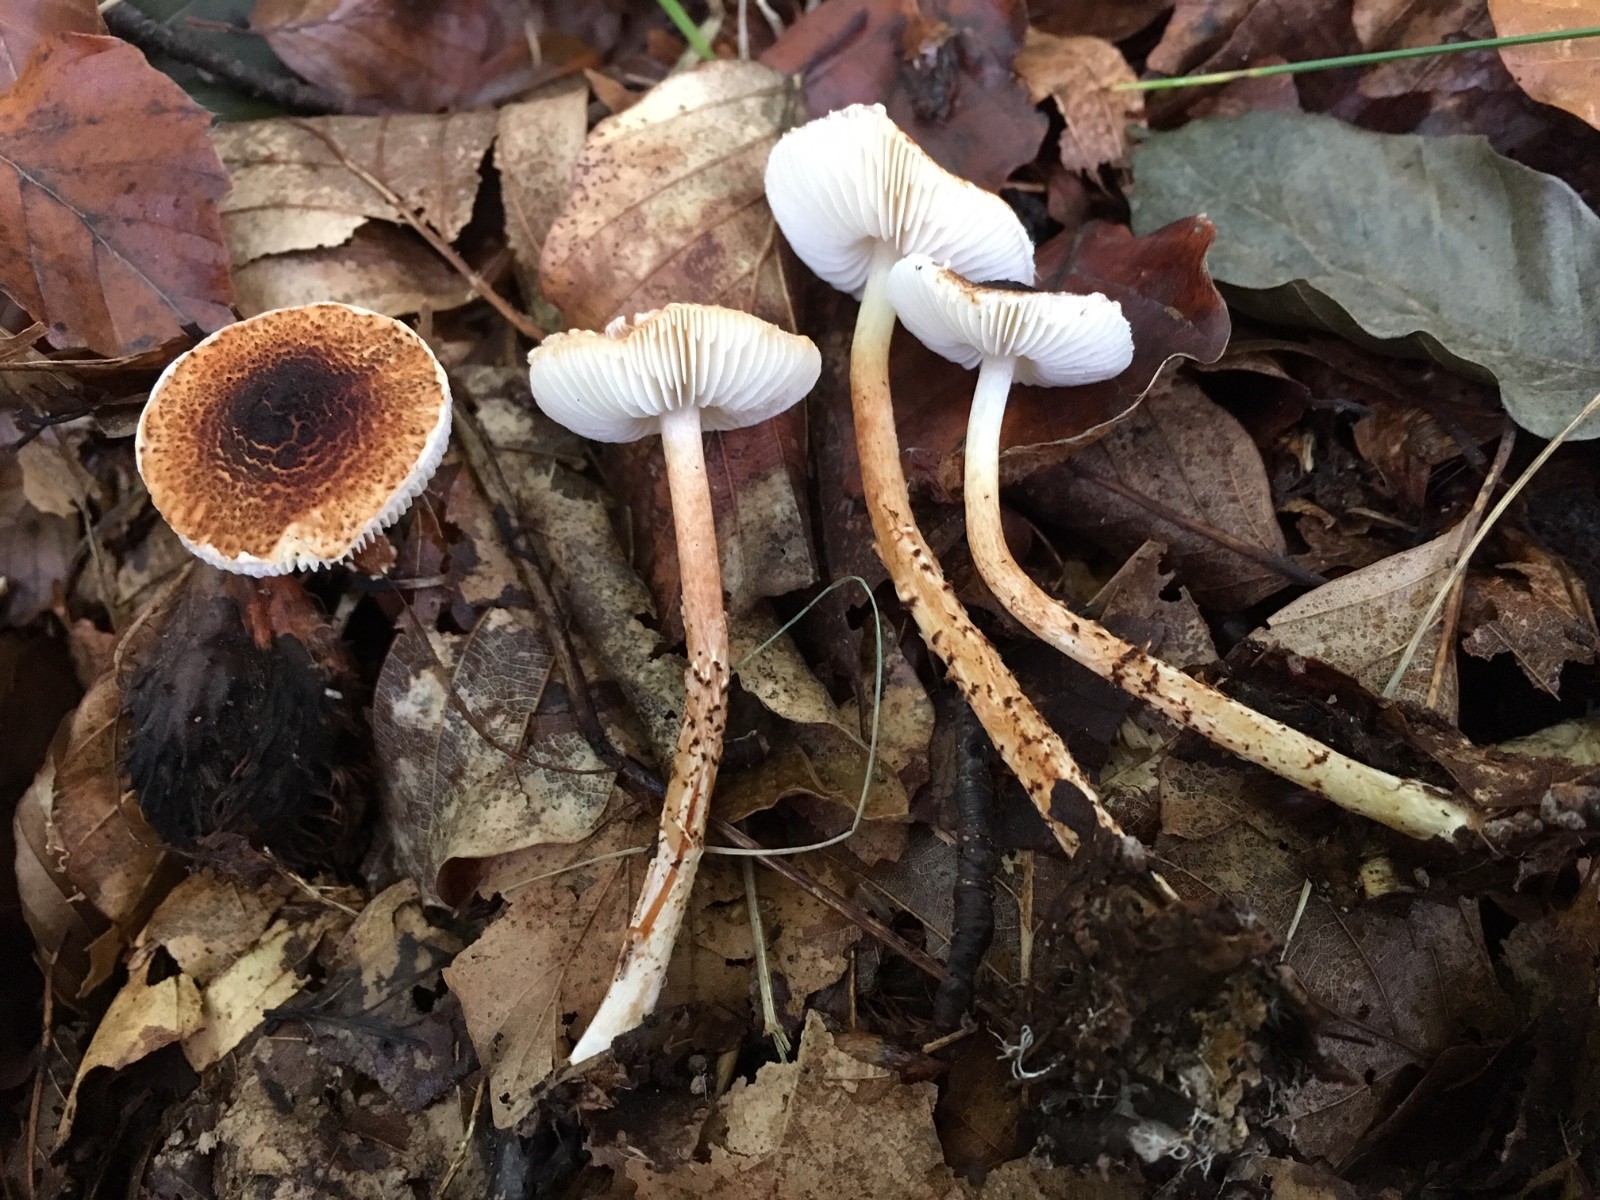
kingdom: Fungi
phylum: Basidiomycota
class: Agaricomycetes
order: Agaricales
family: Agaricaceae
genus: Lepiota
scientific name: Lepiota castanea
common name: kastaniebrun parasolhat
